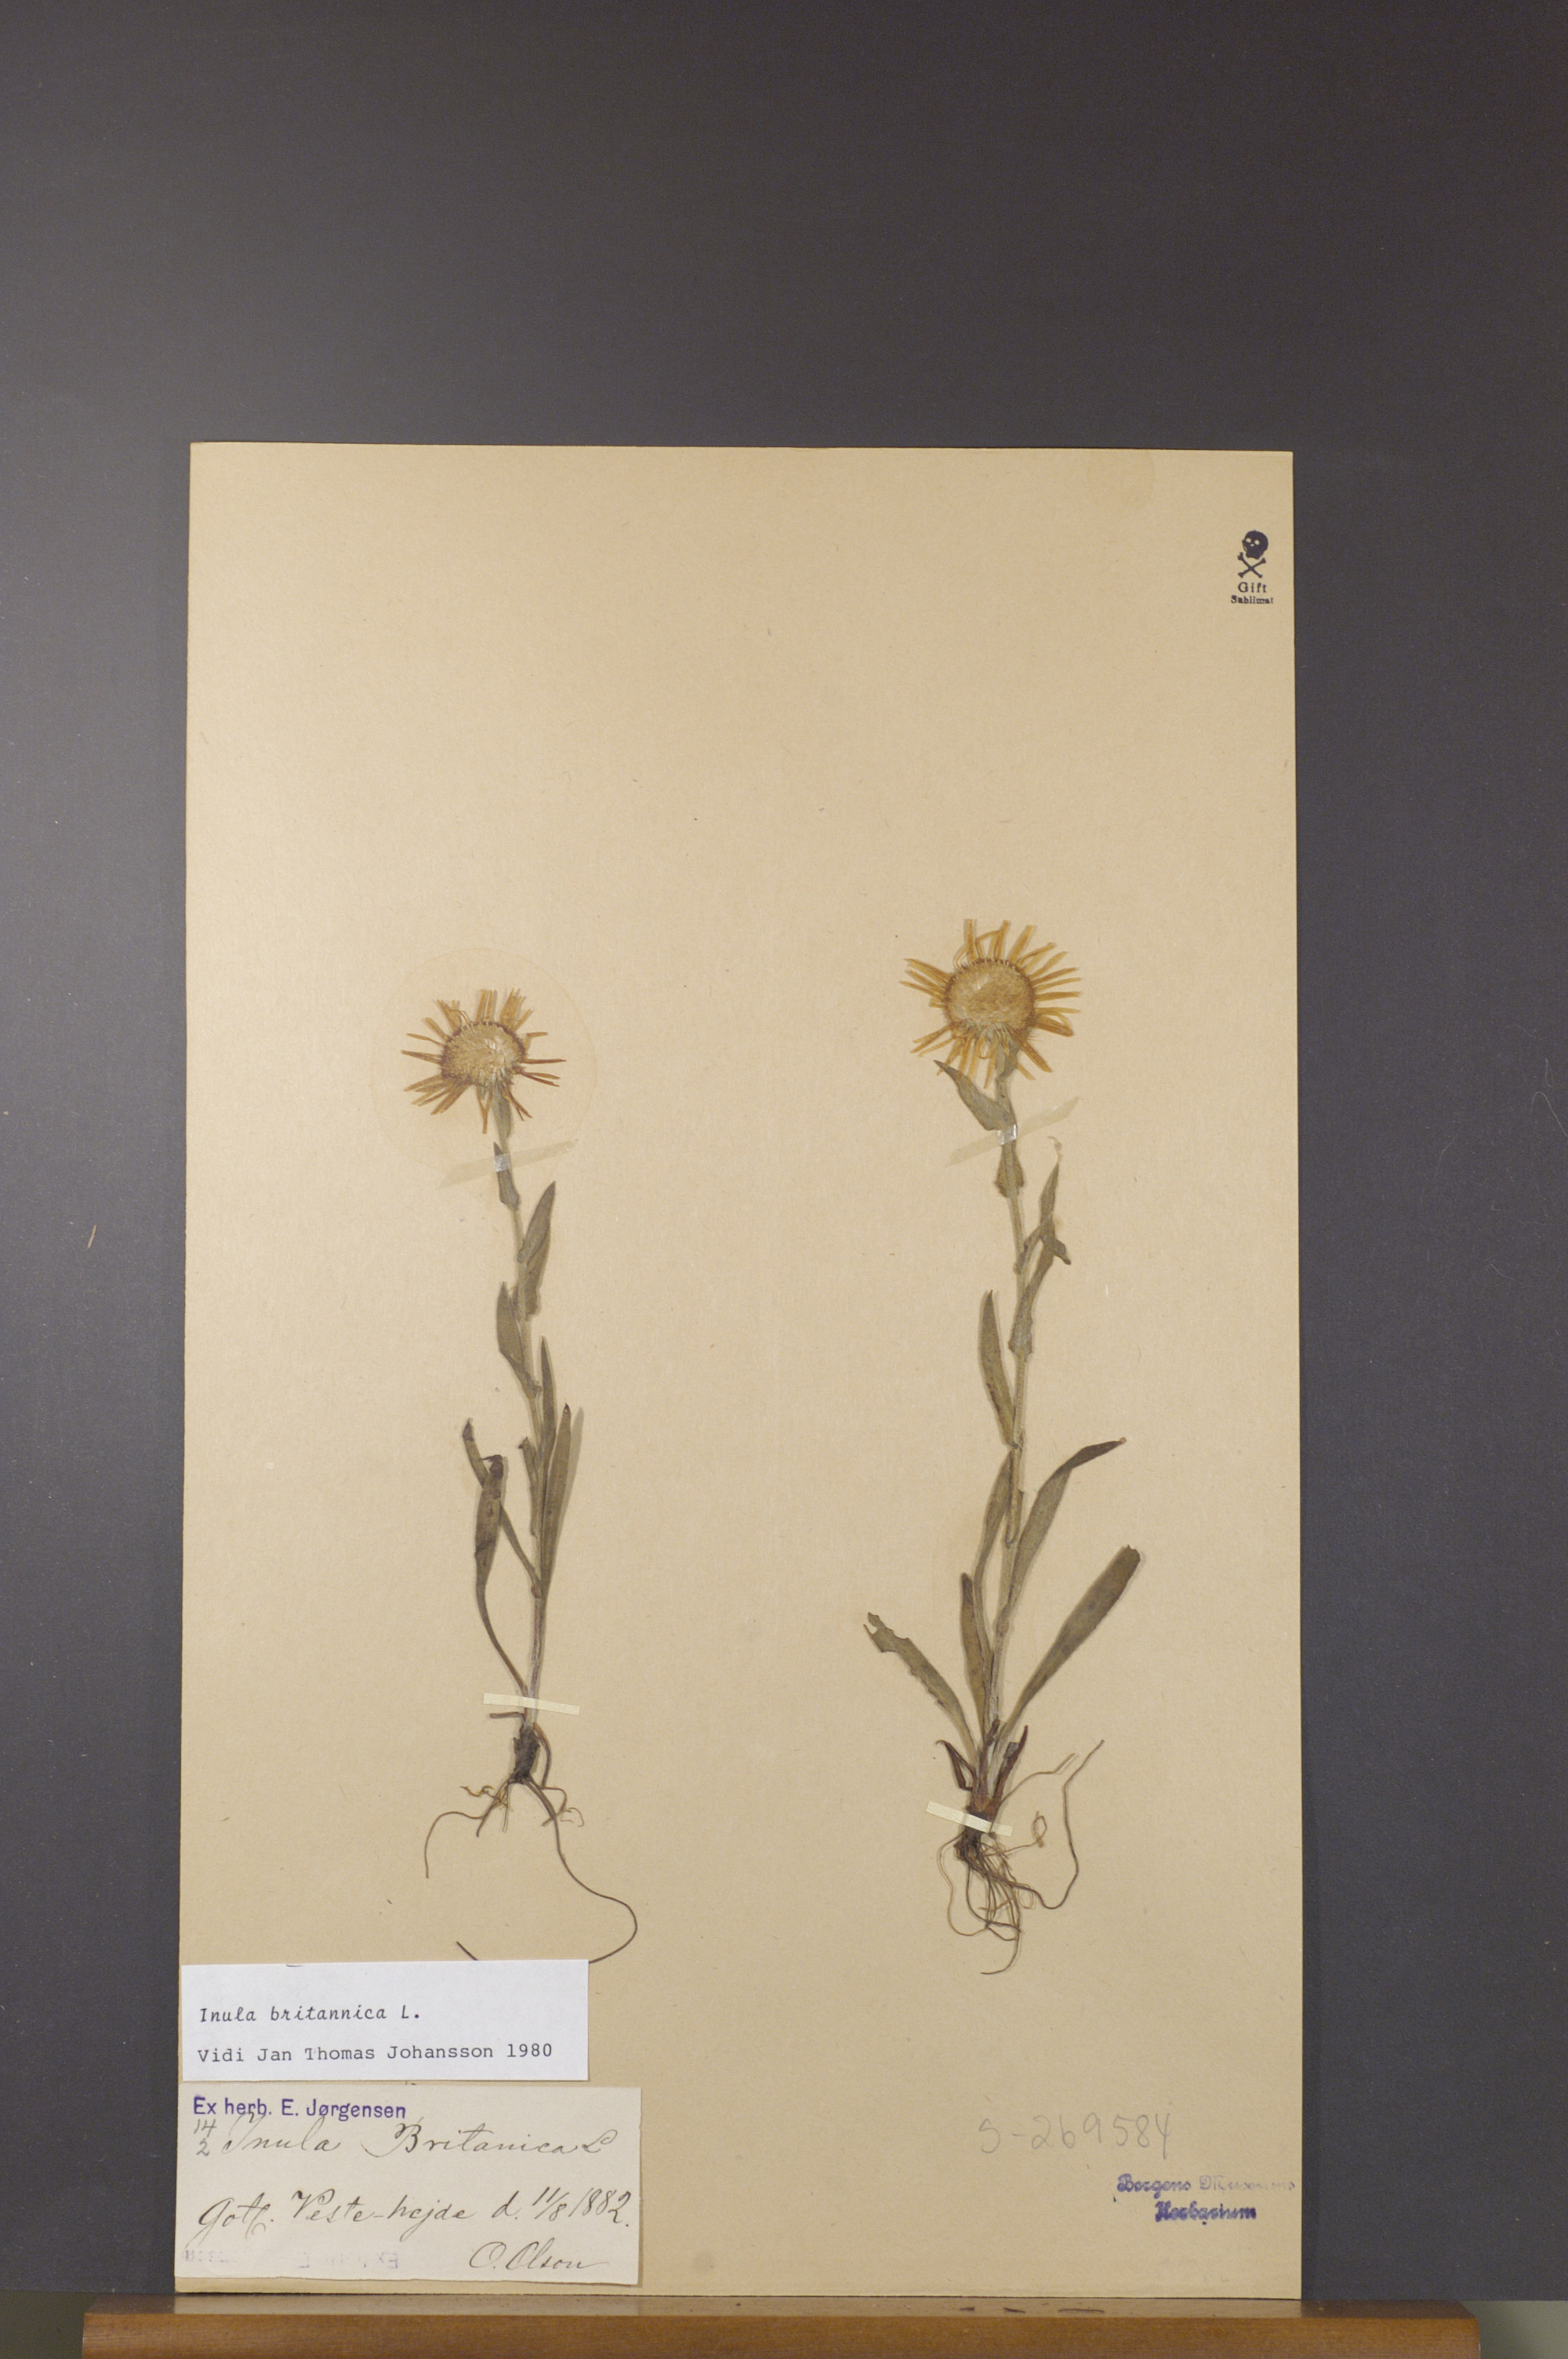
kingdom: Plantae
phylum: Tracheophyta
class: Magnoliopsida
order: Asterales
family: Asteraceae
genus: Pentanema
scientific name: Pentanema britannicum
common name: British elecampane
